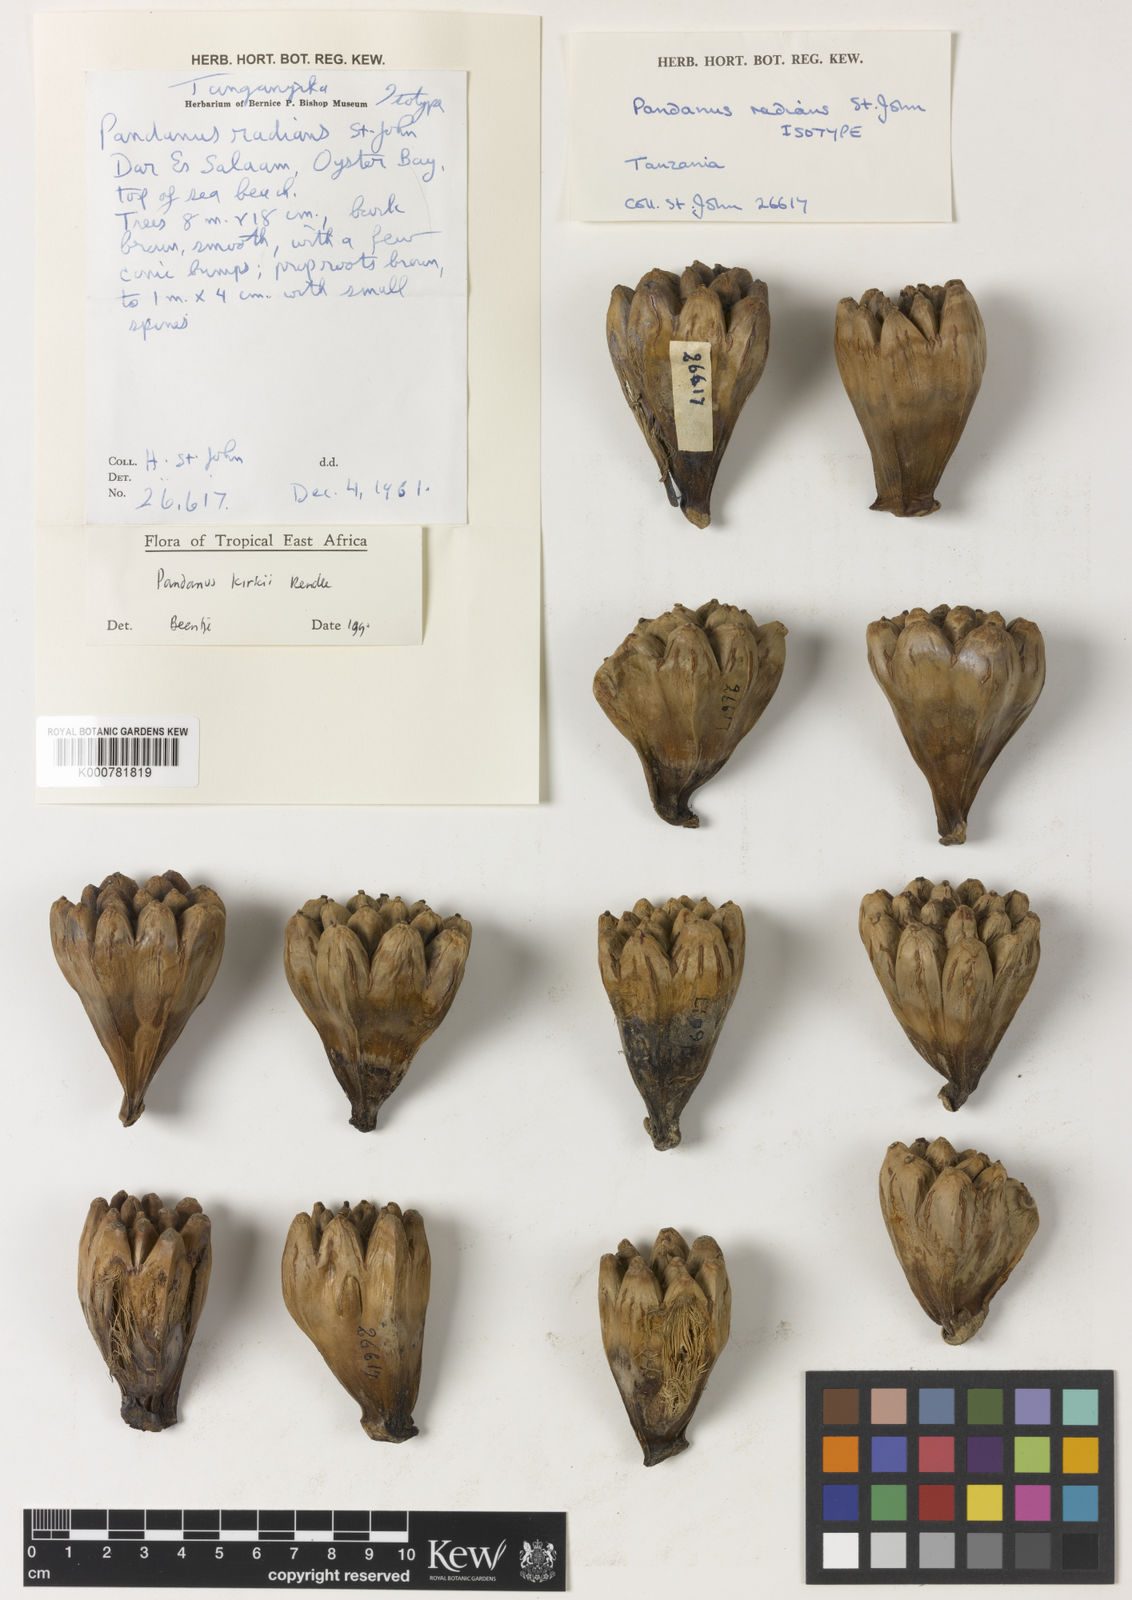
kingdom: Plantae
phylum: Tracheophyta
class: Liliopsida
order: Pandanales
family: Pandanaceae
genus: Pandanus
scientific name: Pandanus kirkii
